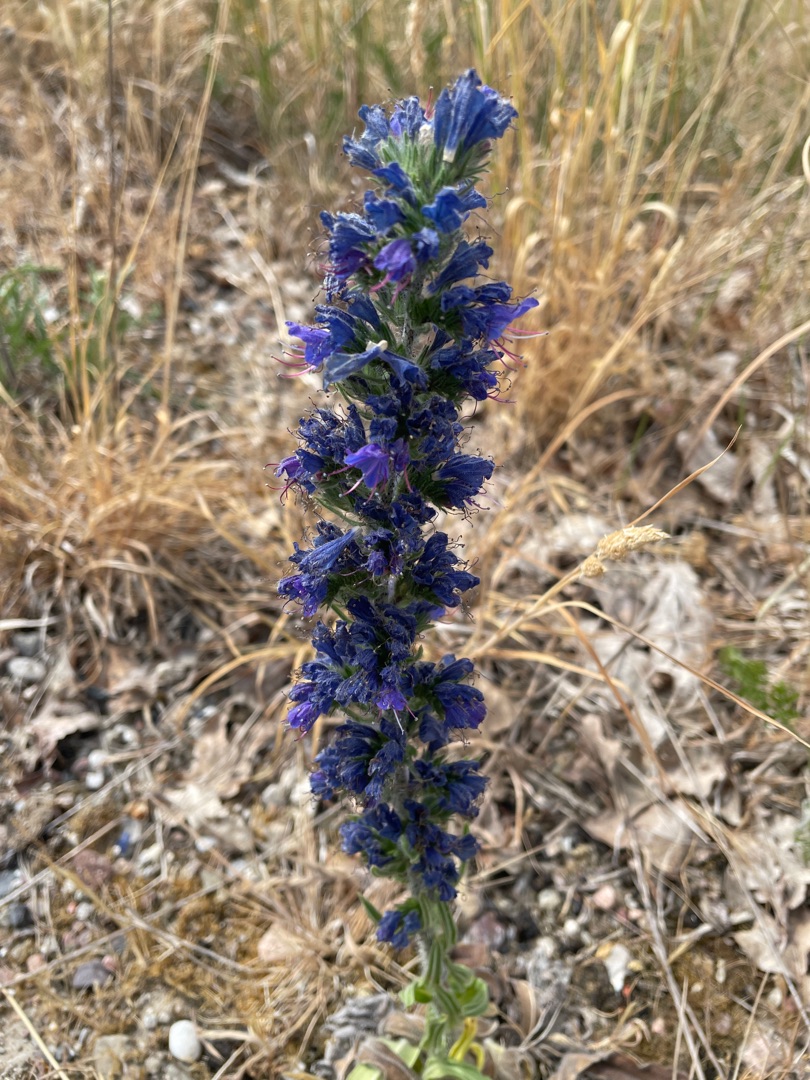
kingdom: Plantae
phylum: Tracheophyta
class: Magnoliopsida
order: Boraginales
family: Boraginaceae
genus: Echium
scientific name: Echium vulgare
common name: Slangehoved
